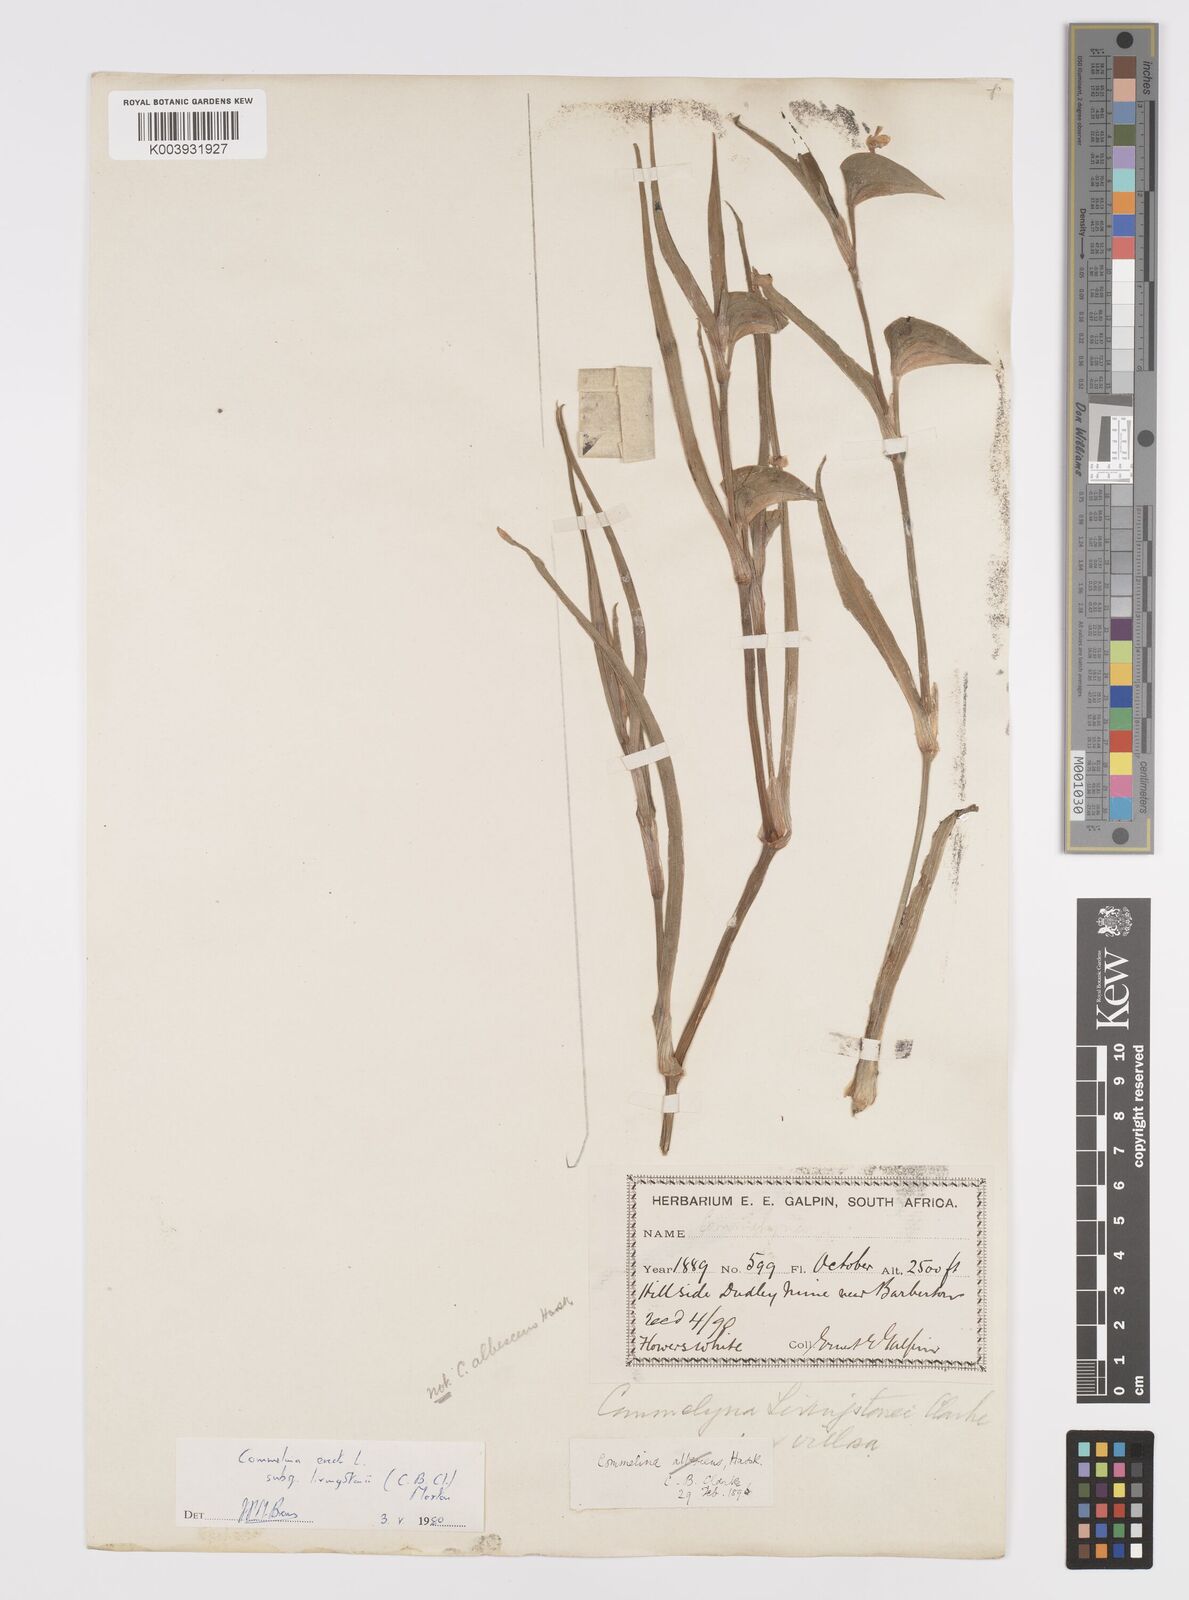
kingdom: Plantae
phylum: Tracheophyta
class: Liliopsida
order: Commelinales
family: Commelinaceae
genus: Commelina
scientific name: Commelina erecta
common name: Blousel blommetjie
